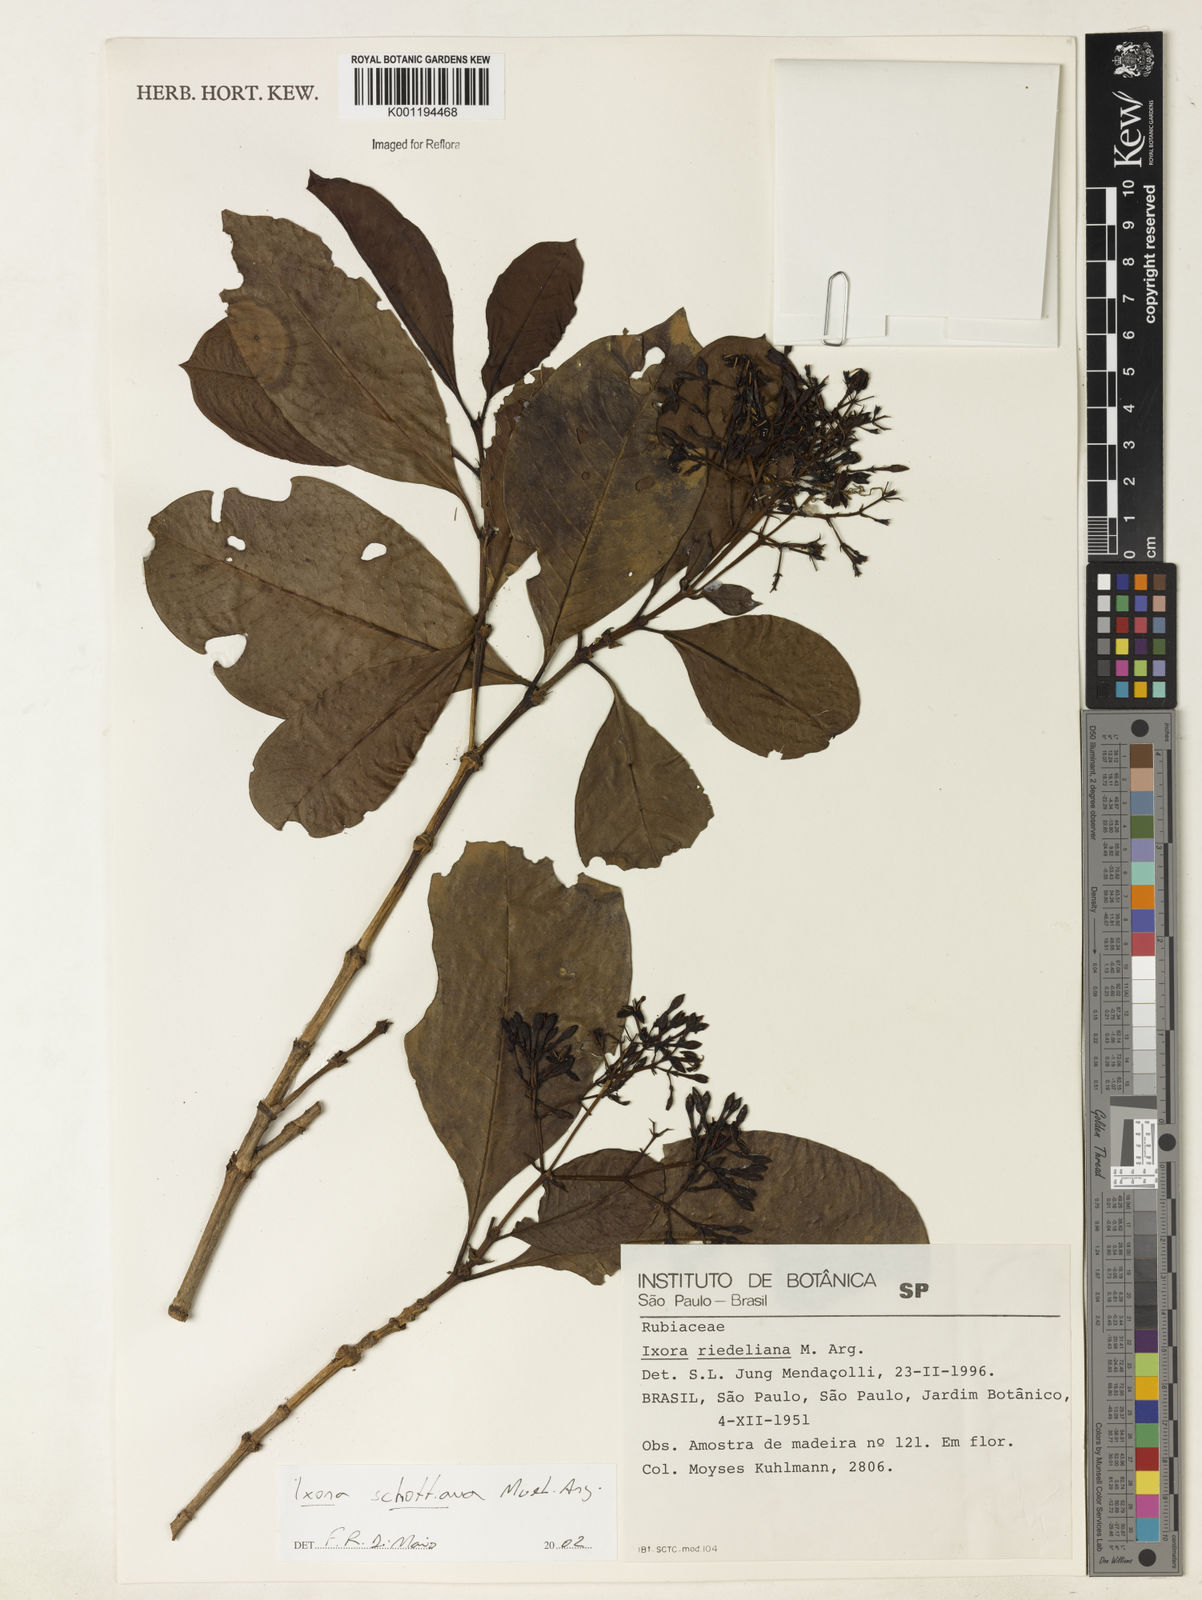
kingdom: Plantae
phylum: Tracheophyta
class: Magnoliopsida
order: Gentianales
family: Rubiaceae
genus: Ixora
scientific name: Ixora
